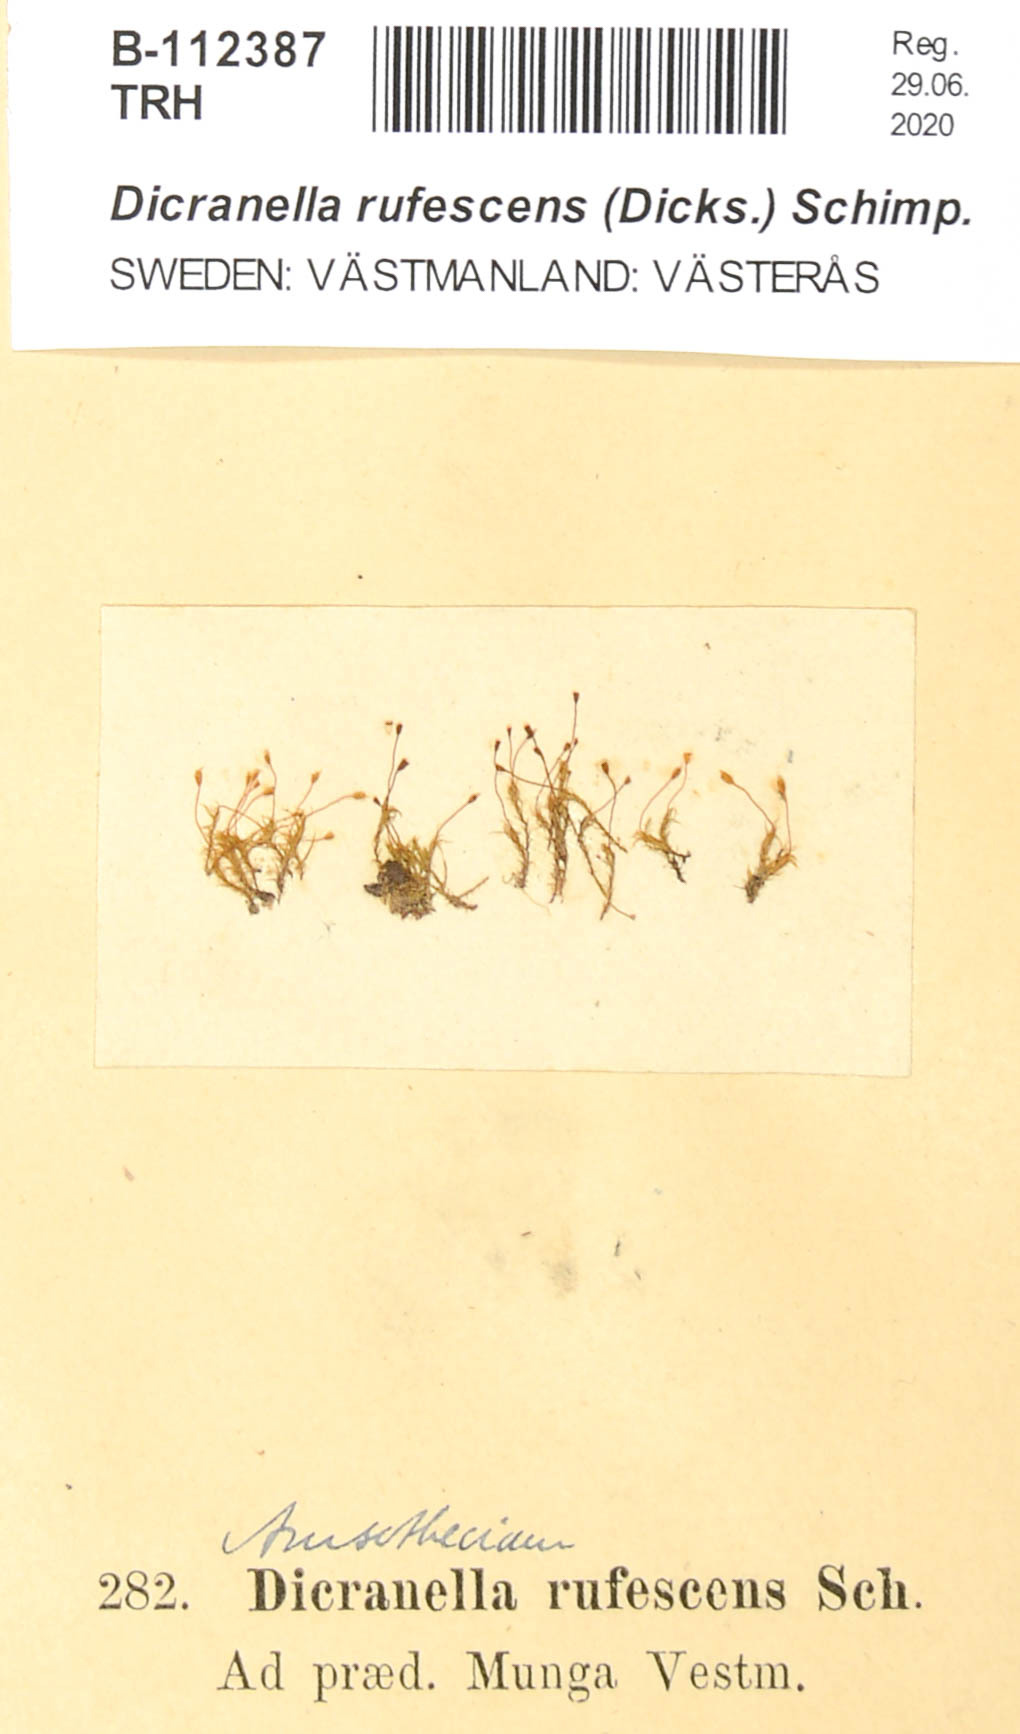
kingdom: Plantae
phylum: Bryophyta
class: Bryopsida
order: Dicranales
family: Dicranellaceae
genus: Dicranella
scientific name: Dicranella rufescens
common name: Red forklet moss
